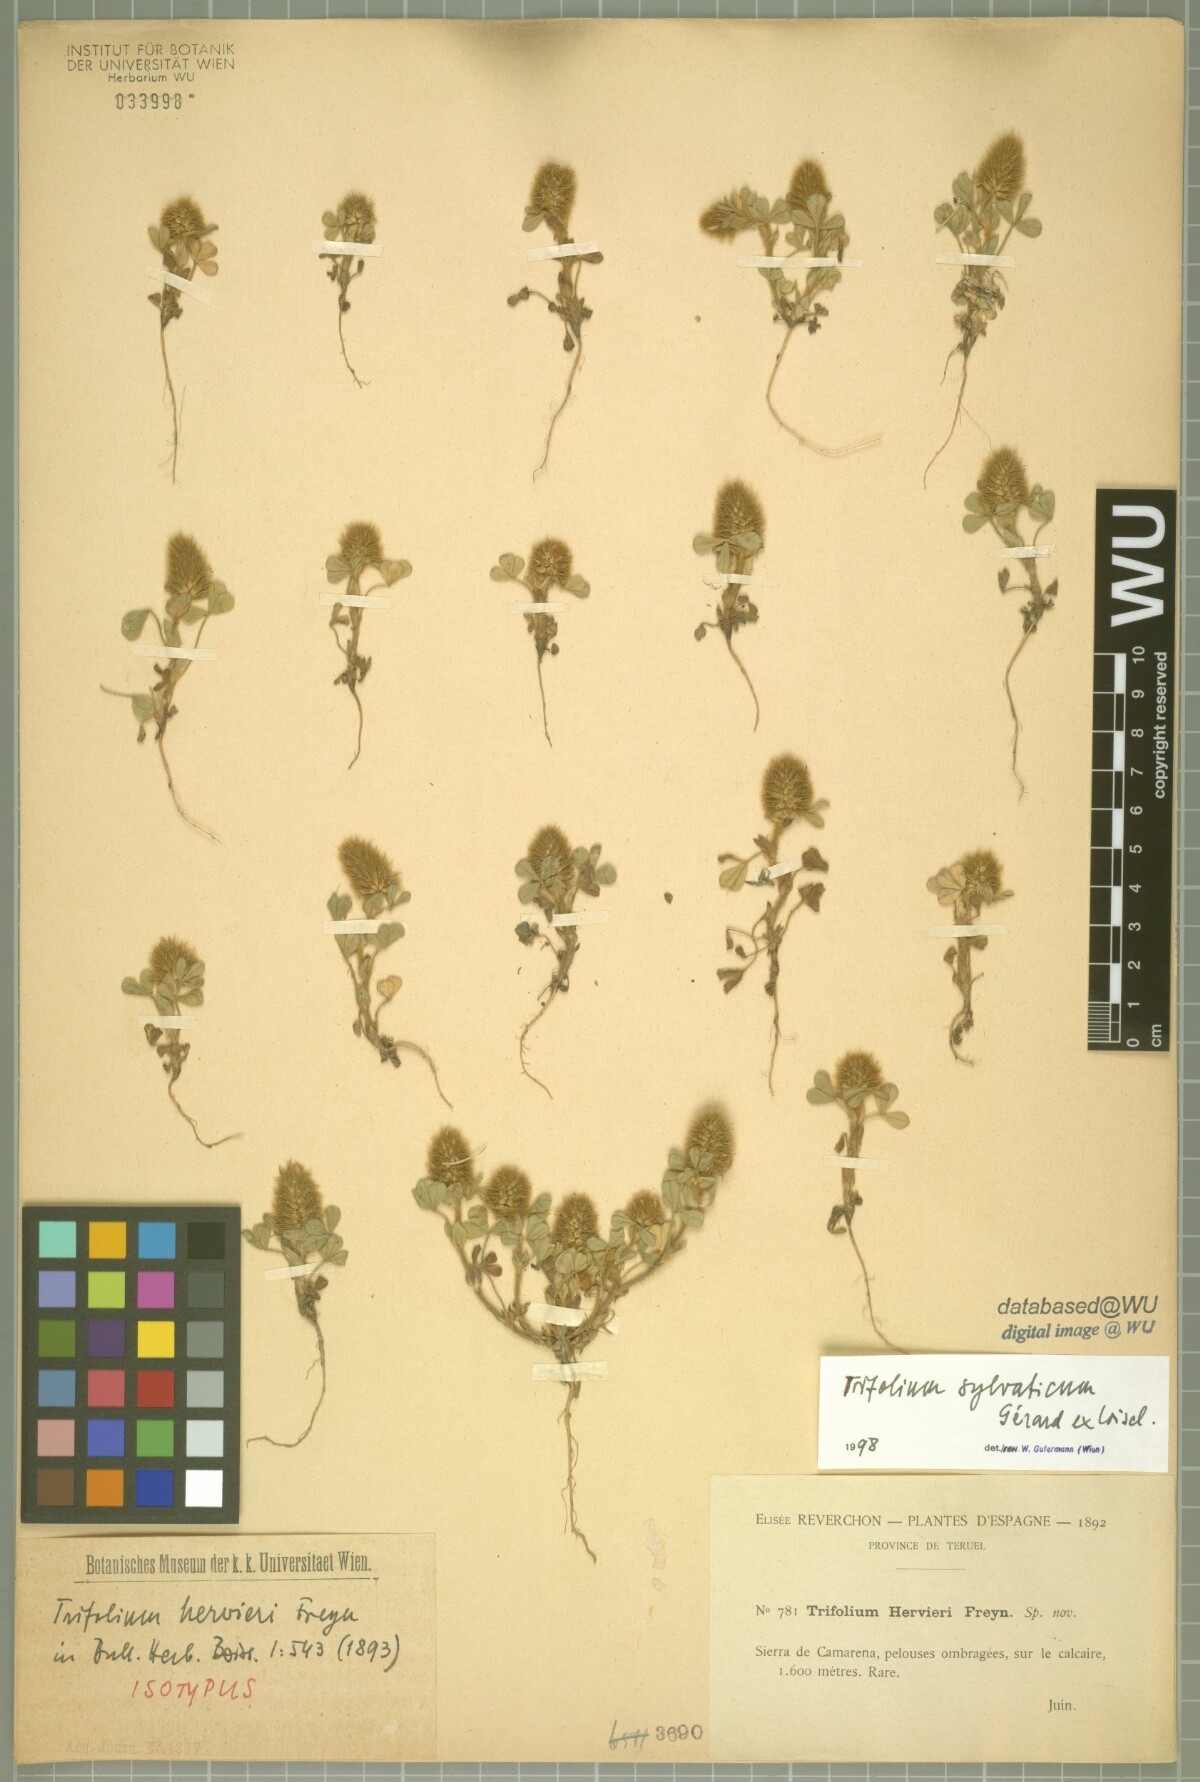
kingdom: Plantae
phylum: Tracheophyta
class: Magnoliopsida
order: Fabales
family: Fabaceae
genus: Trifolium
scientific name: Trifolium sylvaticum
